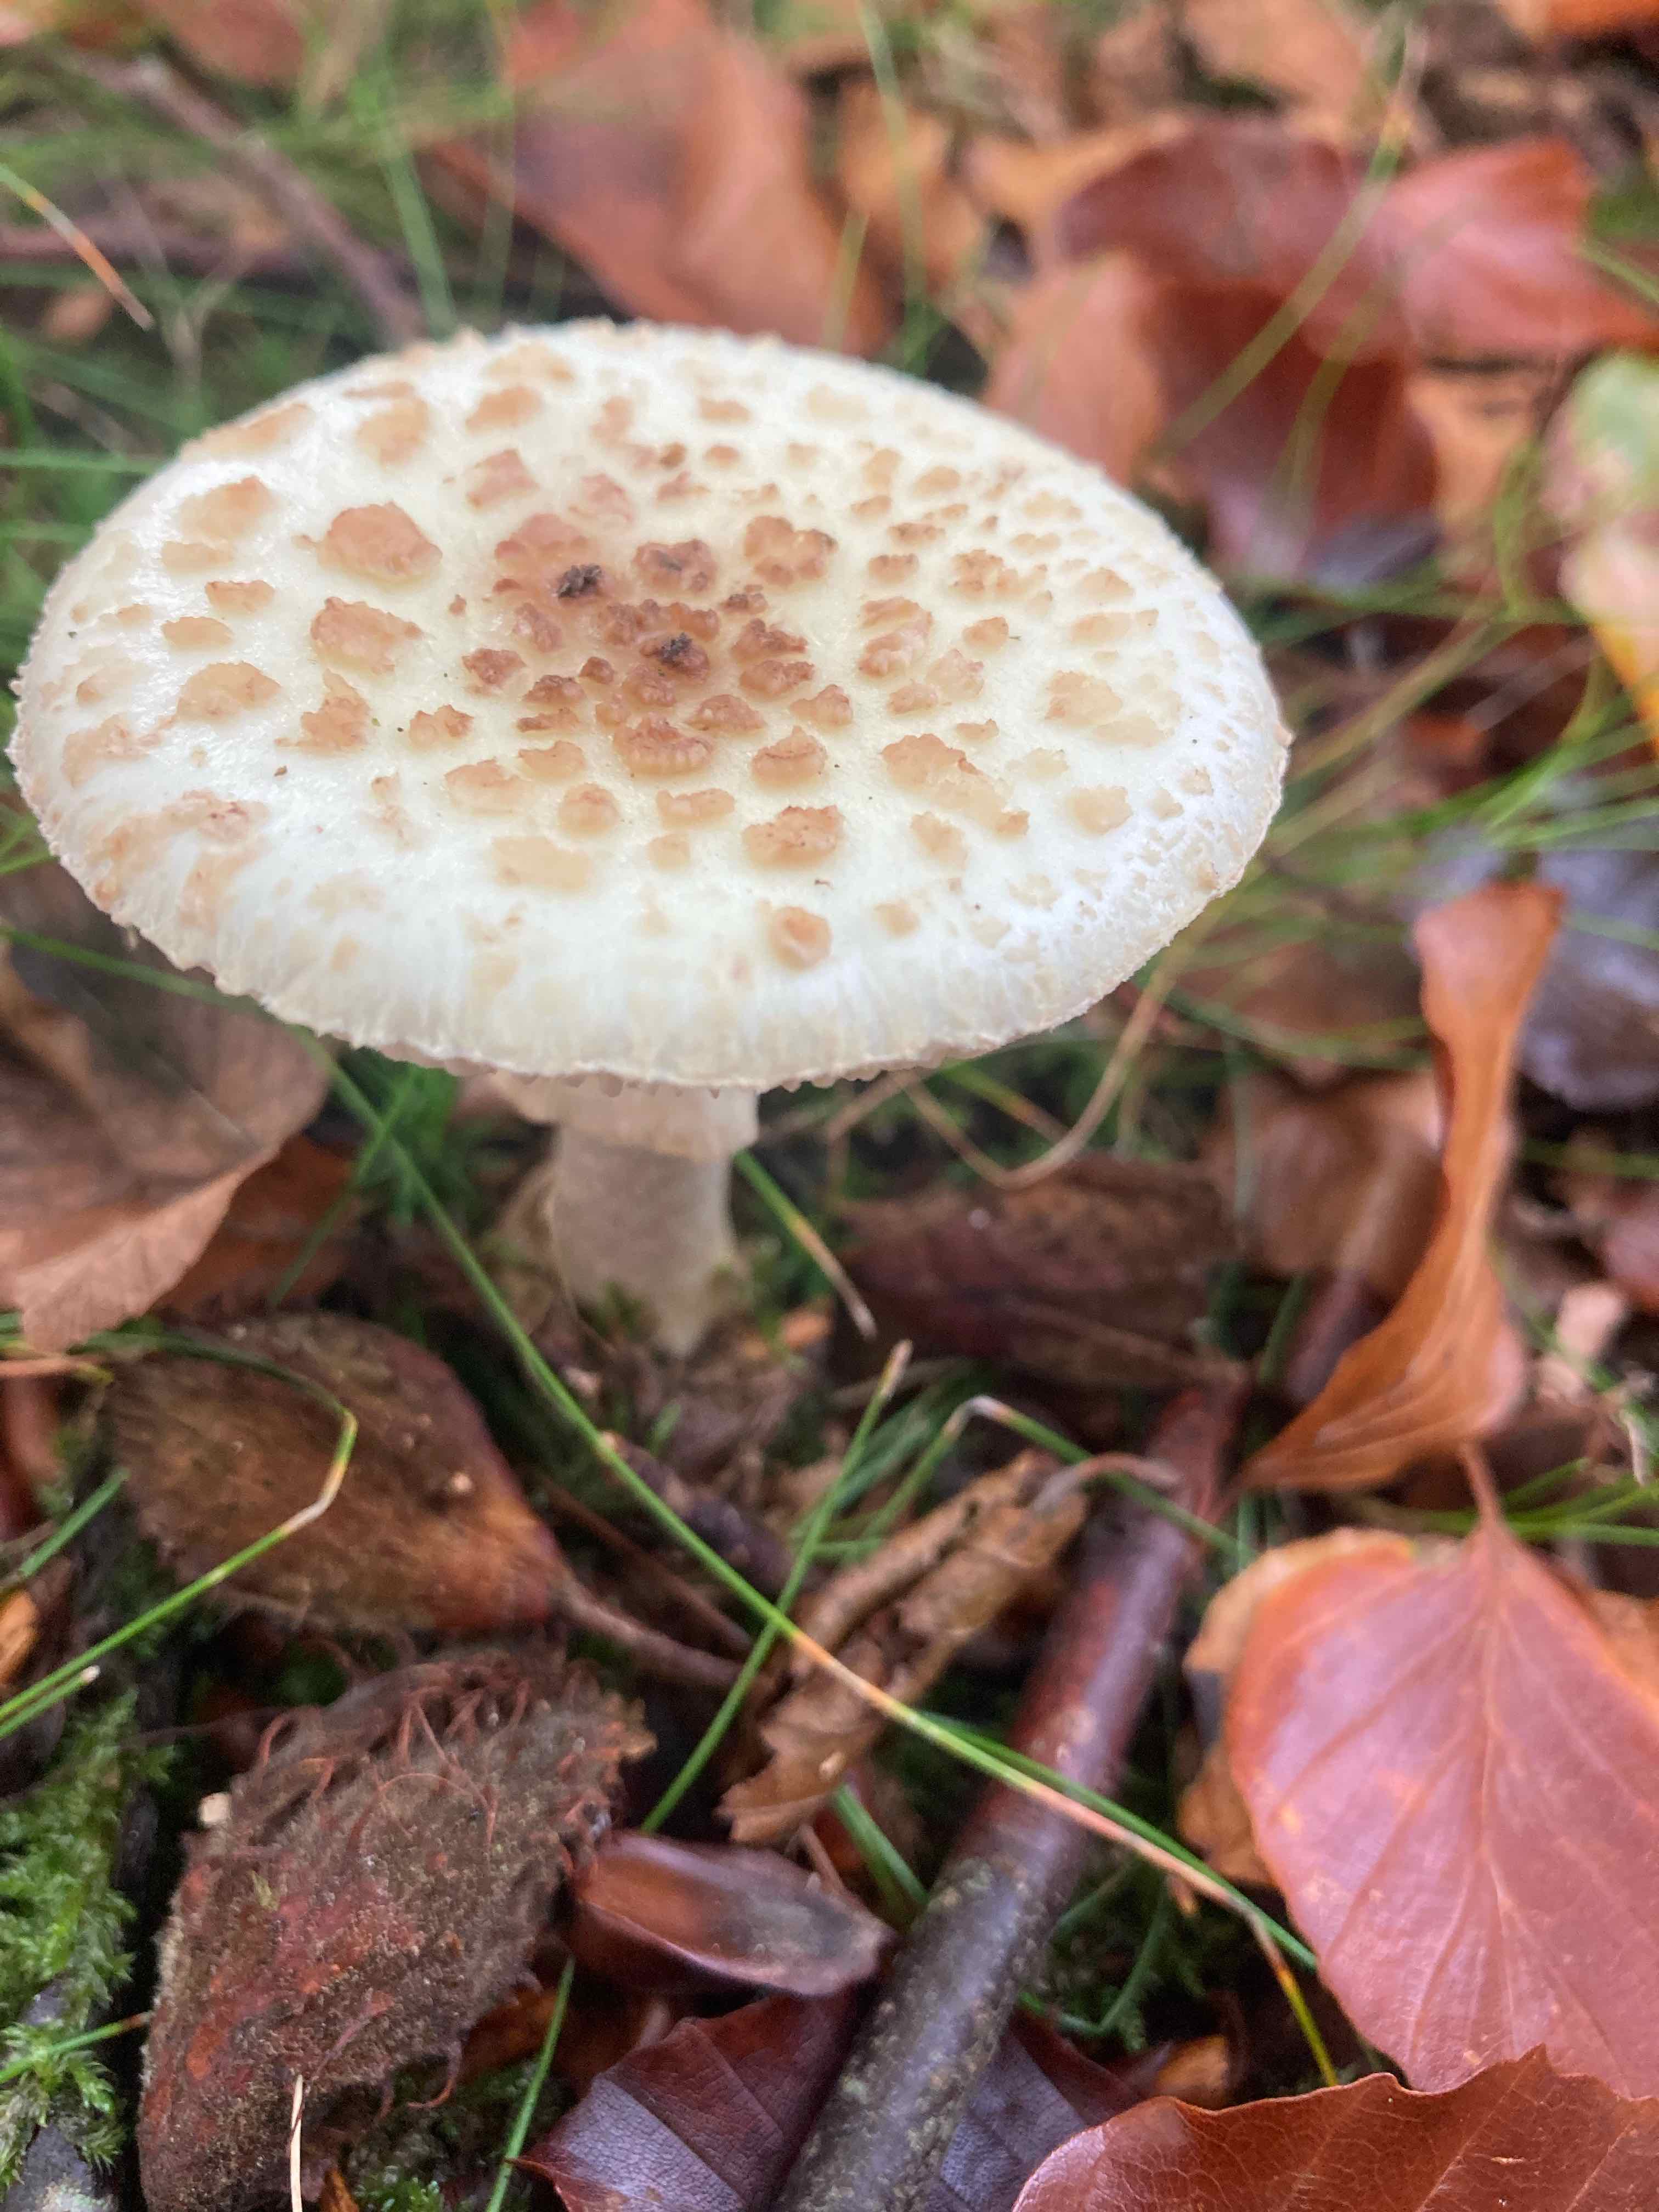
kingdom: Fungi
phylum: Basidiomycota
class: Agaricomycetes
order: Agaricales
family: Amanitaceae
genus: Amanita
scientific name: Amanita citrina
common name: kugleknoldet fluesvamp
